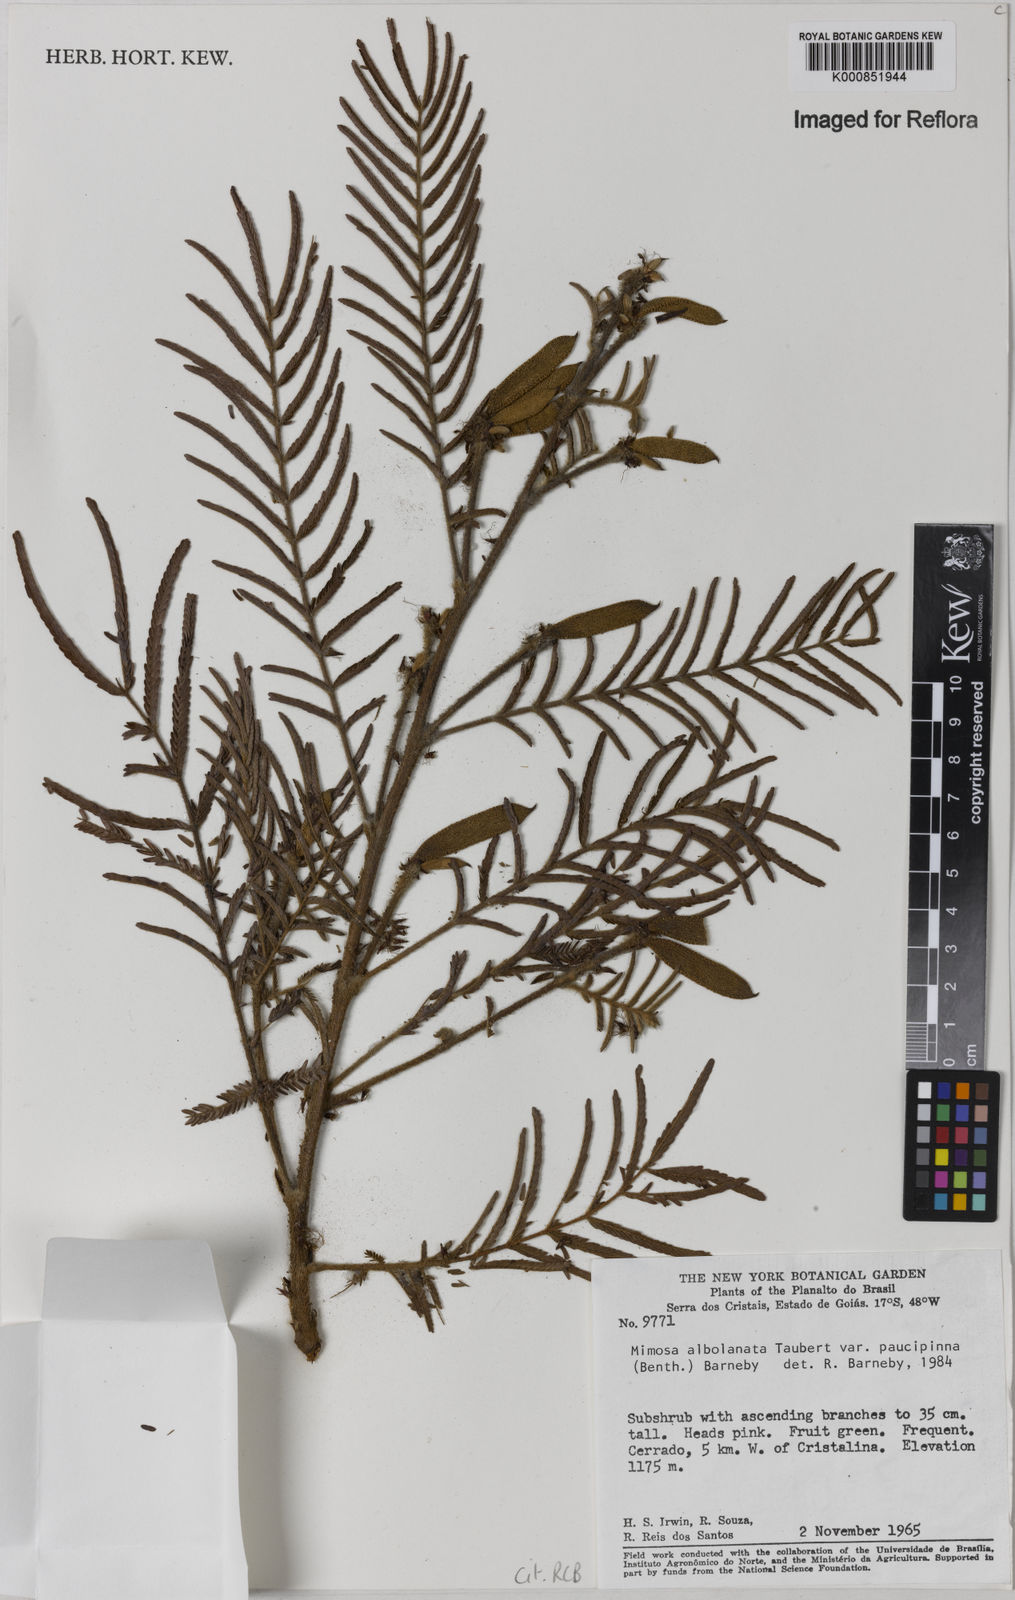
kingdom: Plantae
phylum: Tracheophyta
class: Magnoliopsida
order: Fabales
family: Fabaceae
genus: Mimosa
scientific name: Mimosa albolanata
